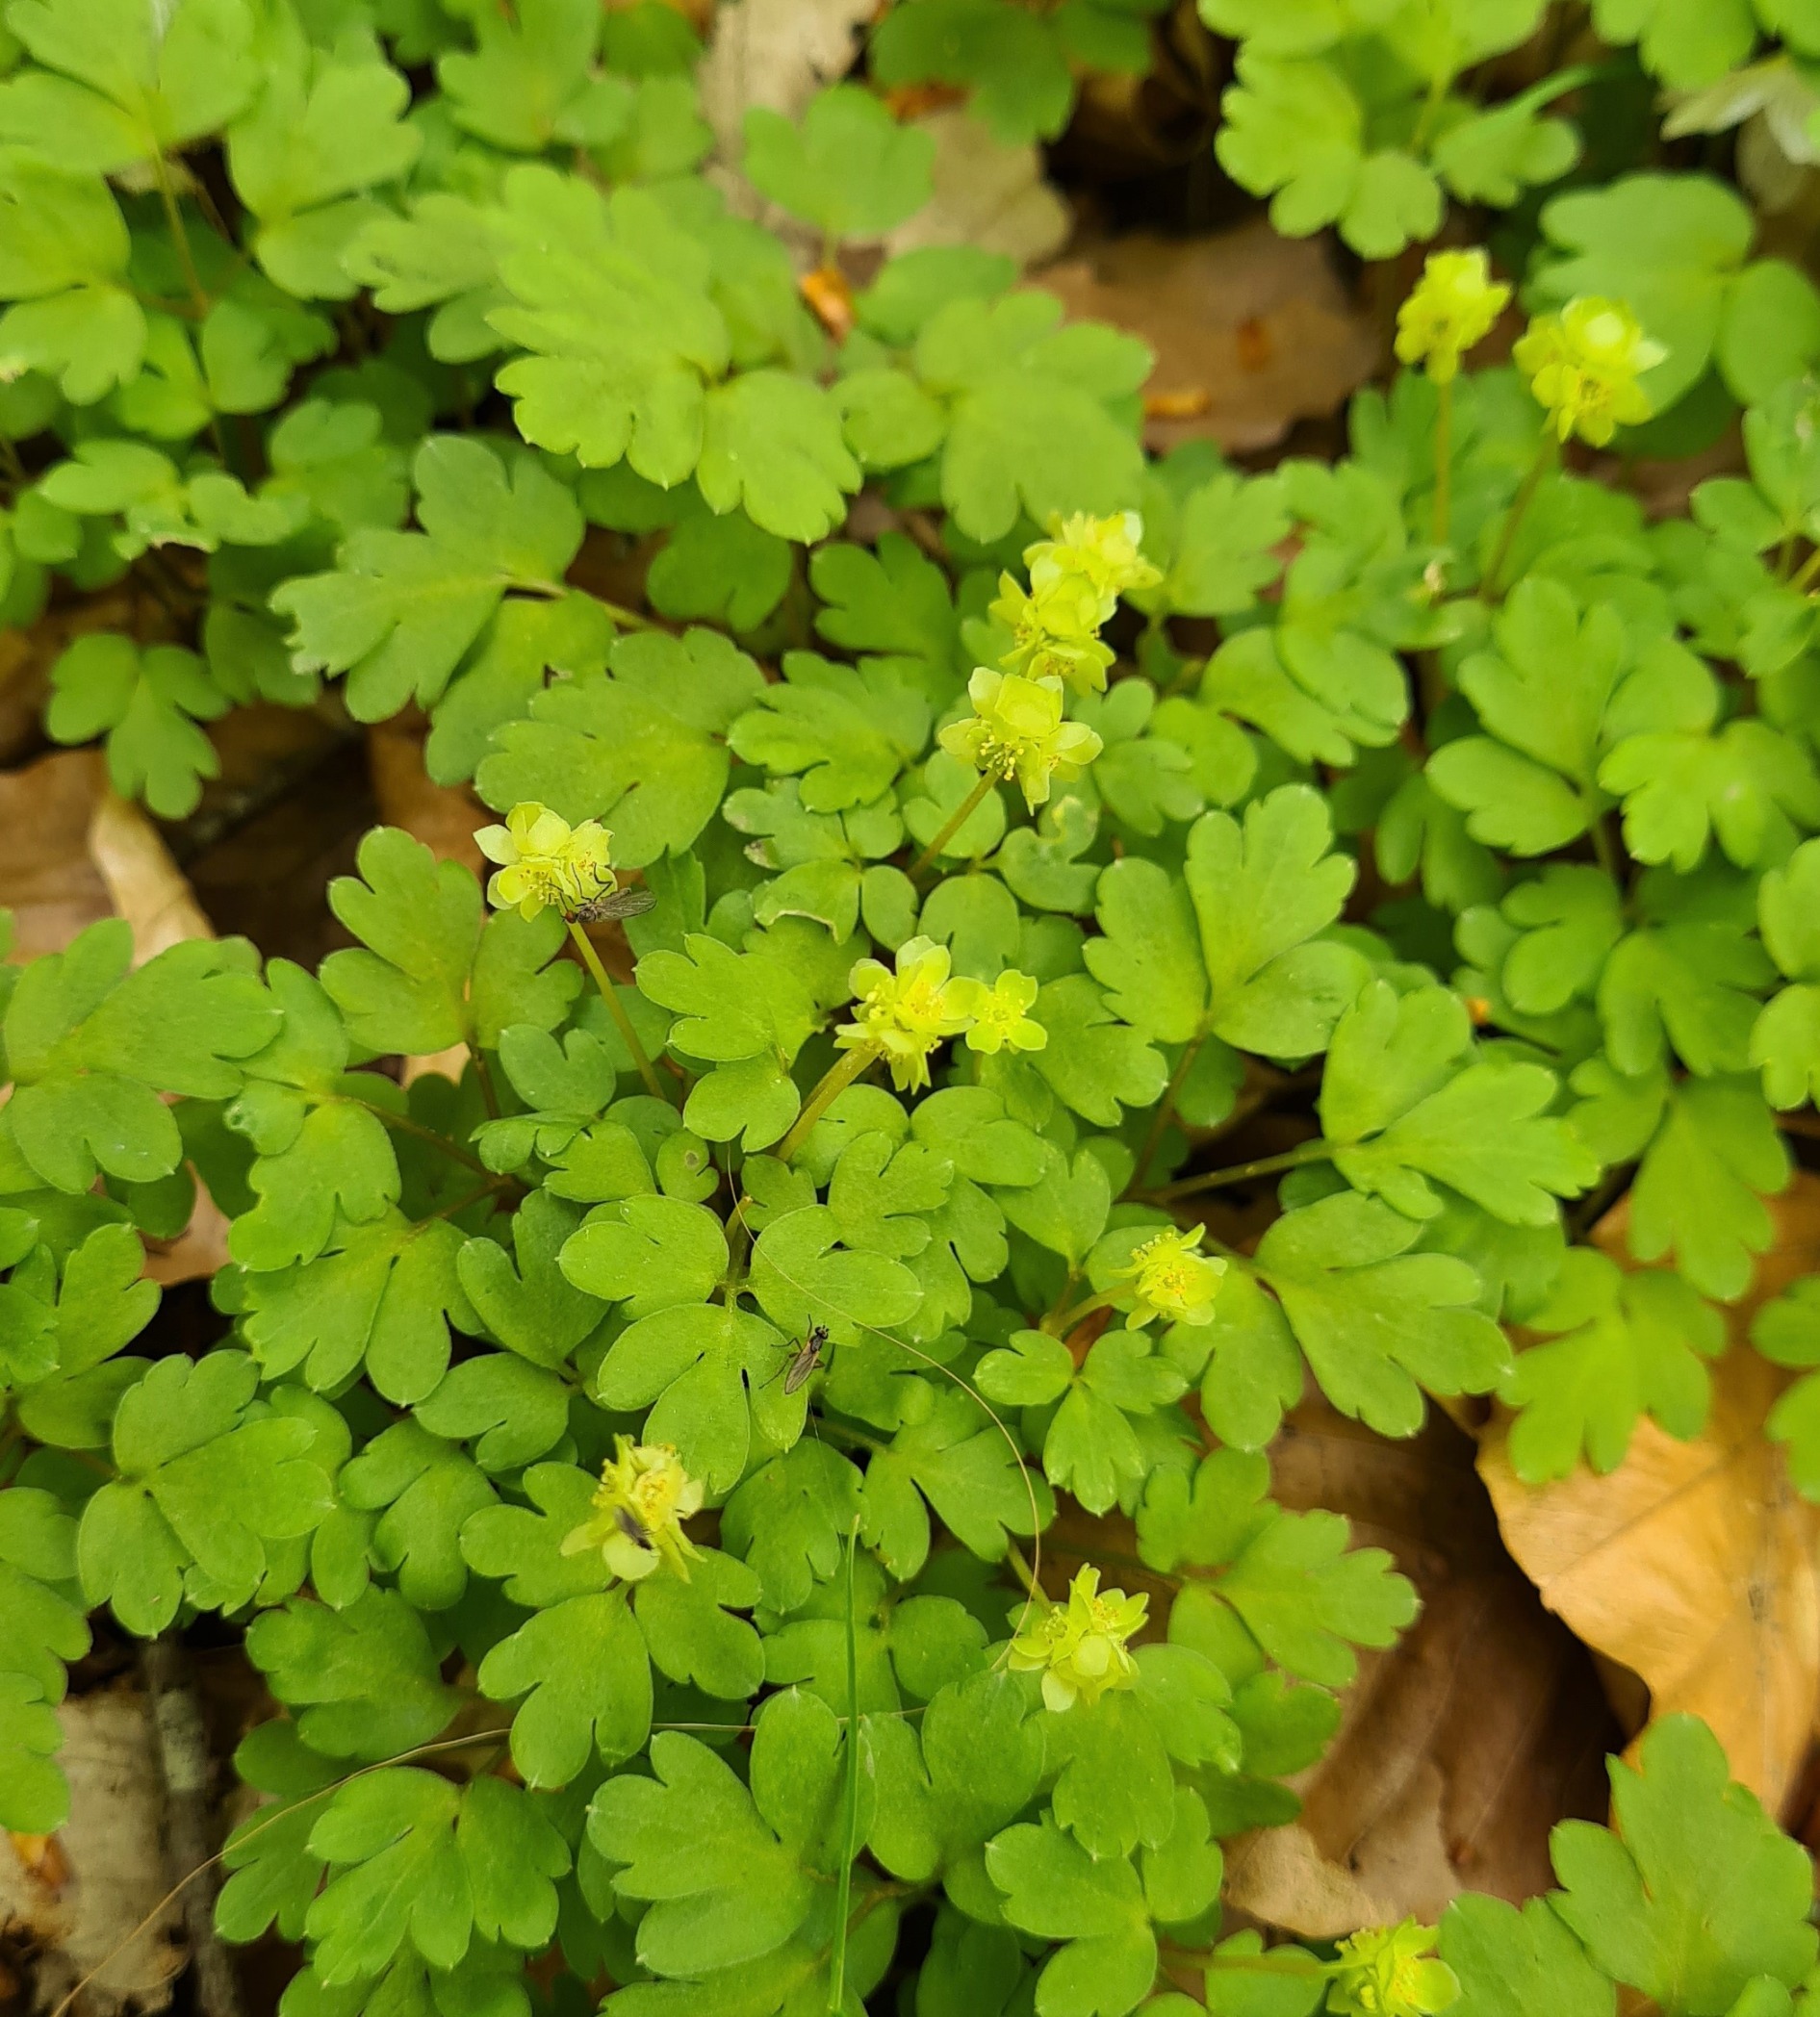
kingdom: Plantae
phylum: Tracheophyta
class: Magnoliopsida
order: Dipsacales
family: Viburnaceae
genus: Adoxa
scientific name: Adoxa moschatellina
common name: Desmerurt
